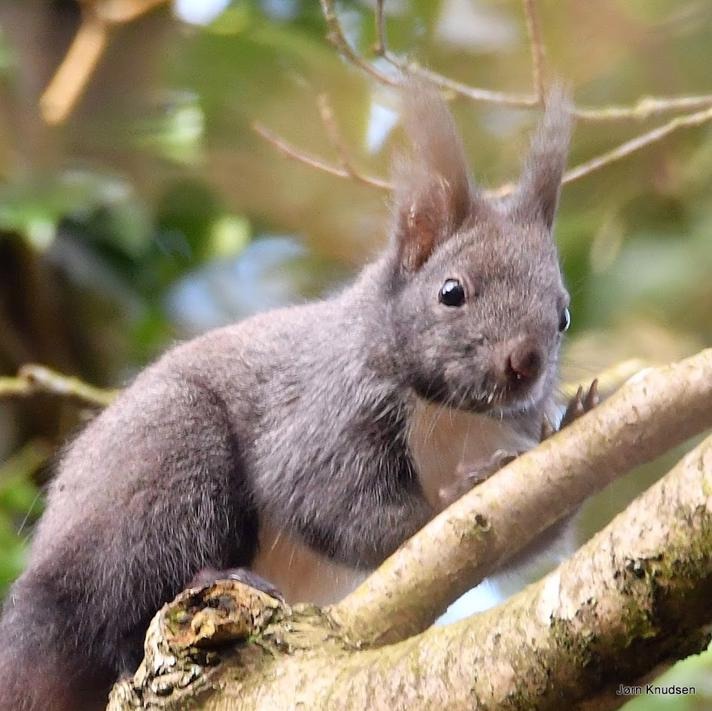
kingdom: Animalia
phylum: Chordata
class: Mammalia
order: Rodentia
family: Sciuridae
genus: Sciurus
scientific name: Sciurus vulgaris
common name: Egern
